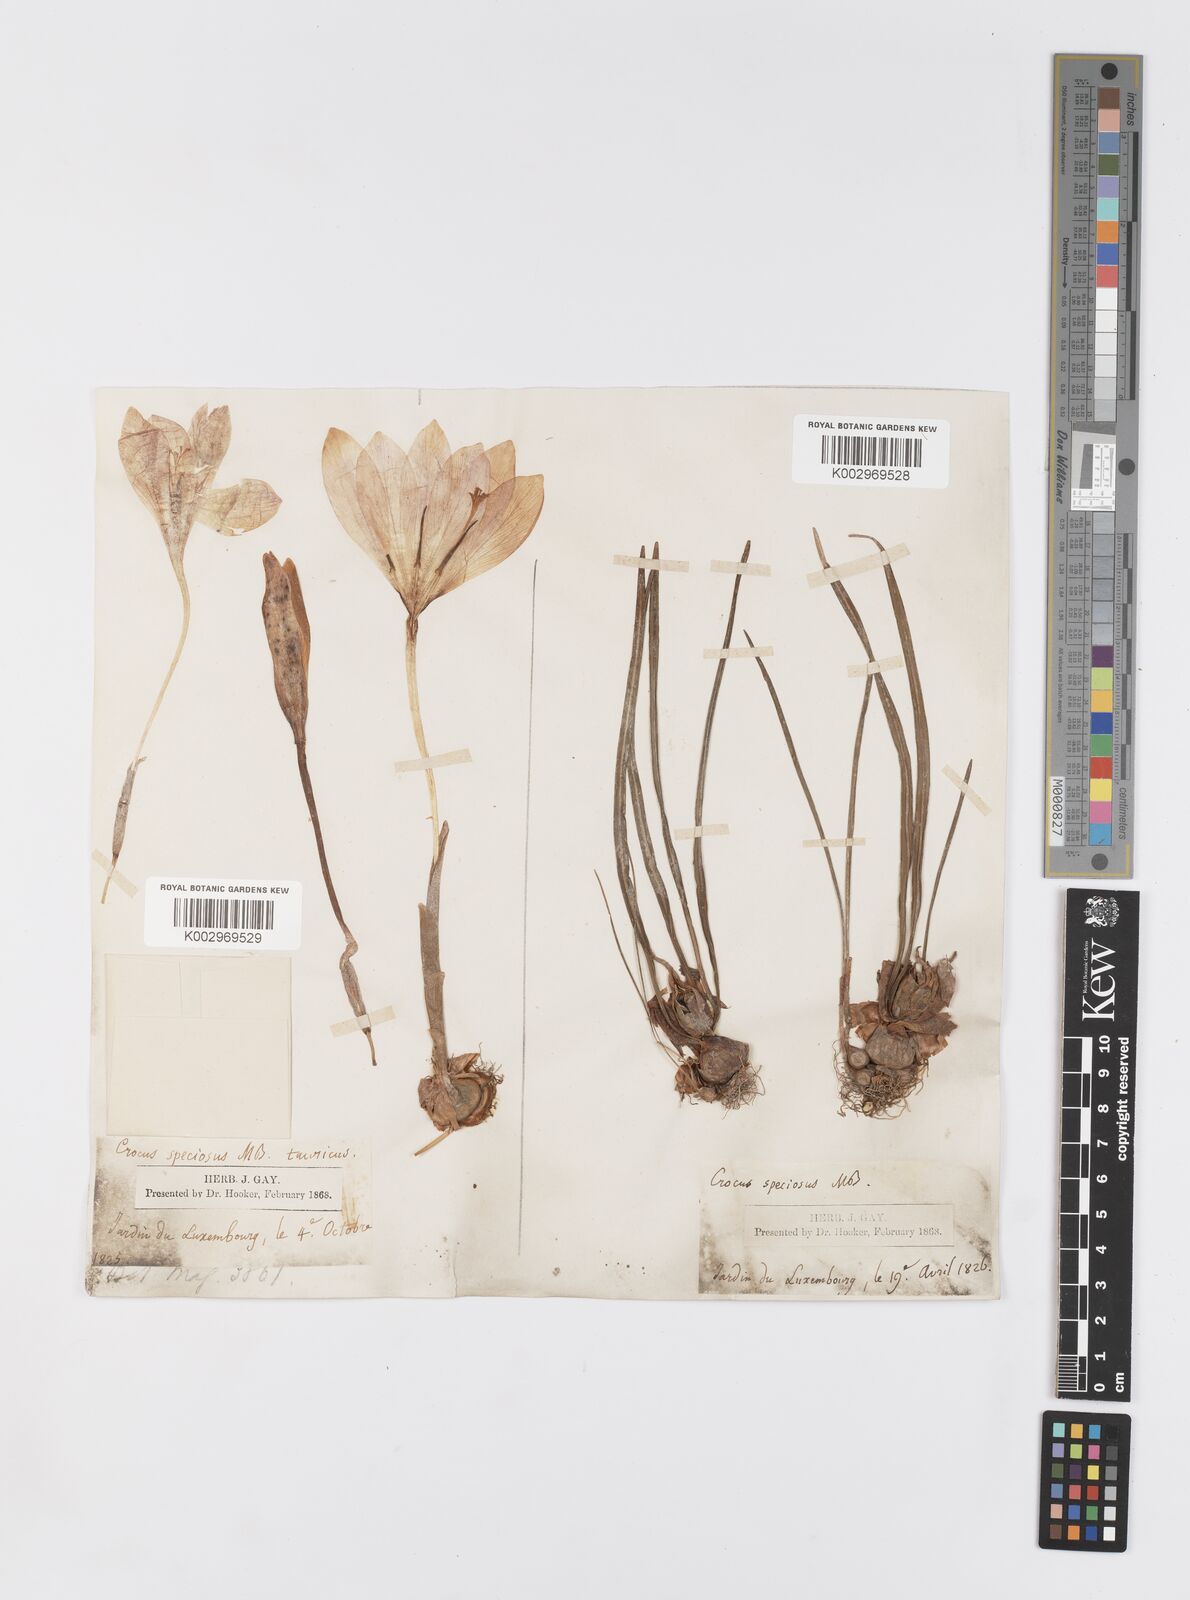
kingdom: Plantae
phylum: Tracheophyta
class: Liliopsida
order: Asparagales
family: Iridaceae
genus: Crocus
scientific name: Crocus speciosus
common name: Bieberstein's crocus
